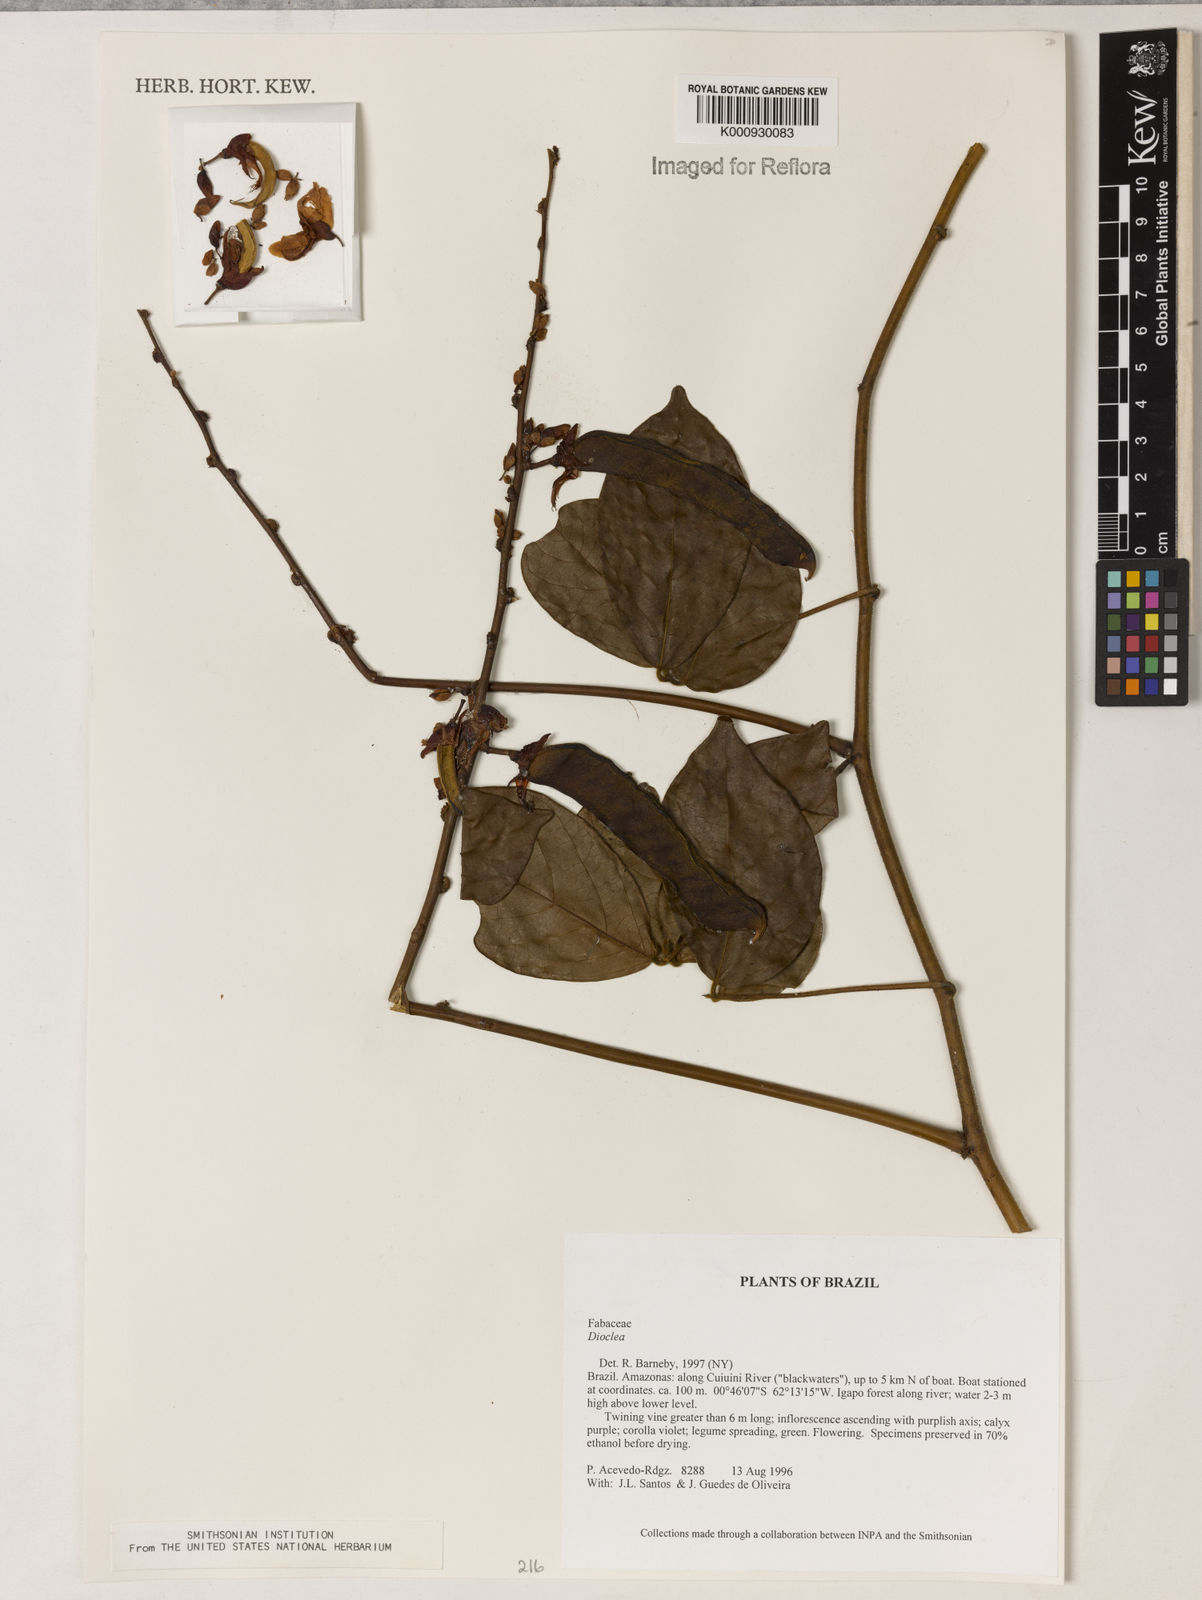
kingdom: Plantae
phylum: Tracheophyta
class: Magnoliopsida
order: Fabales
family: Fabaceae
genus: Dioclea
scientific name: Dioclea
